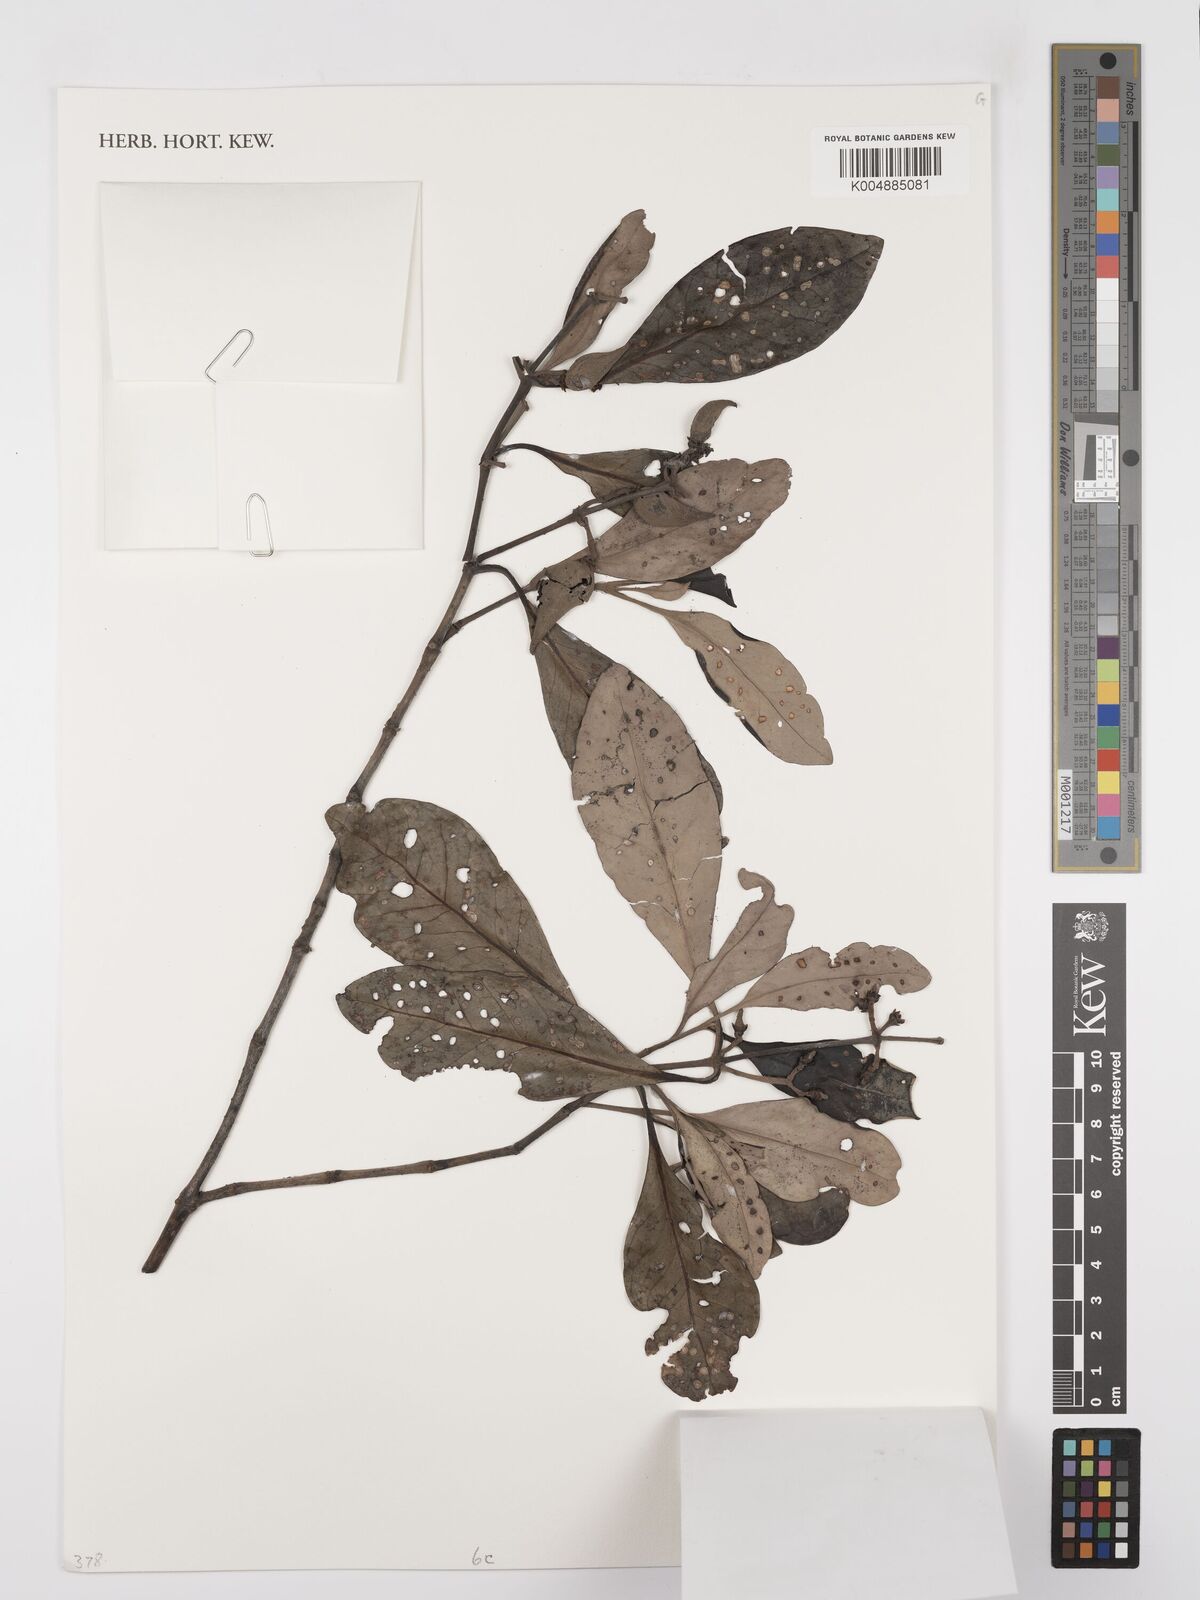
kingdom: Plantae
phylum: Tracheophyta
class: Magnoliopsida
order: Lamiales
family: Acanthaceae
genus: Avicennia
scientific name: Avicennia alba
